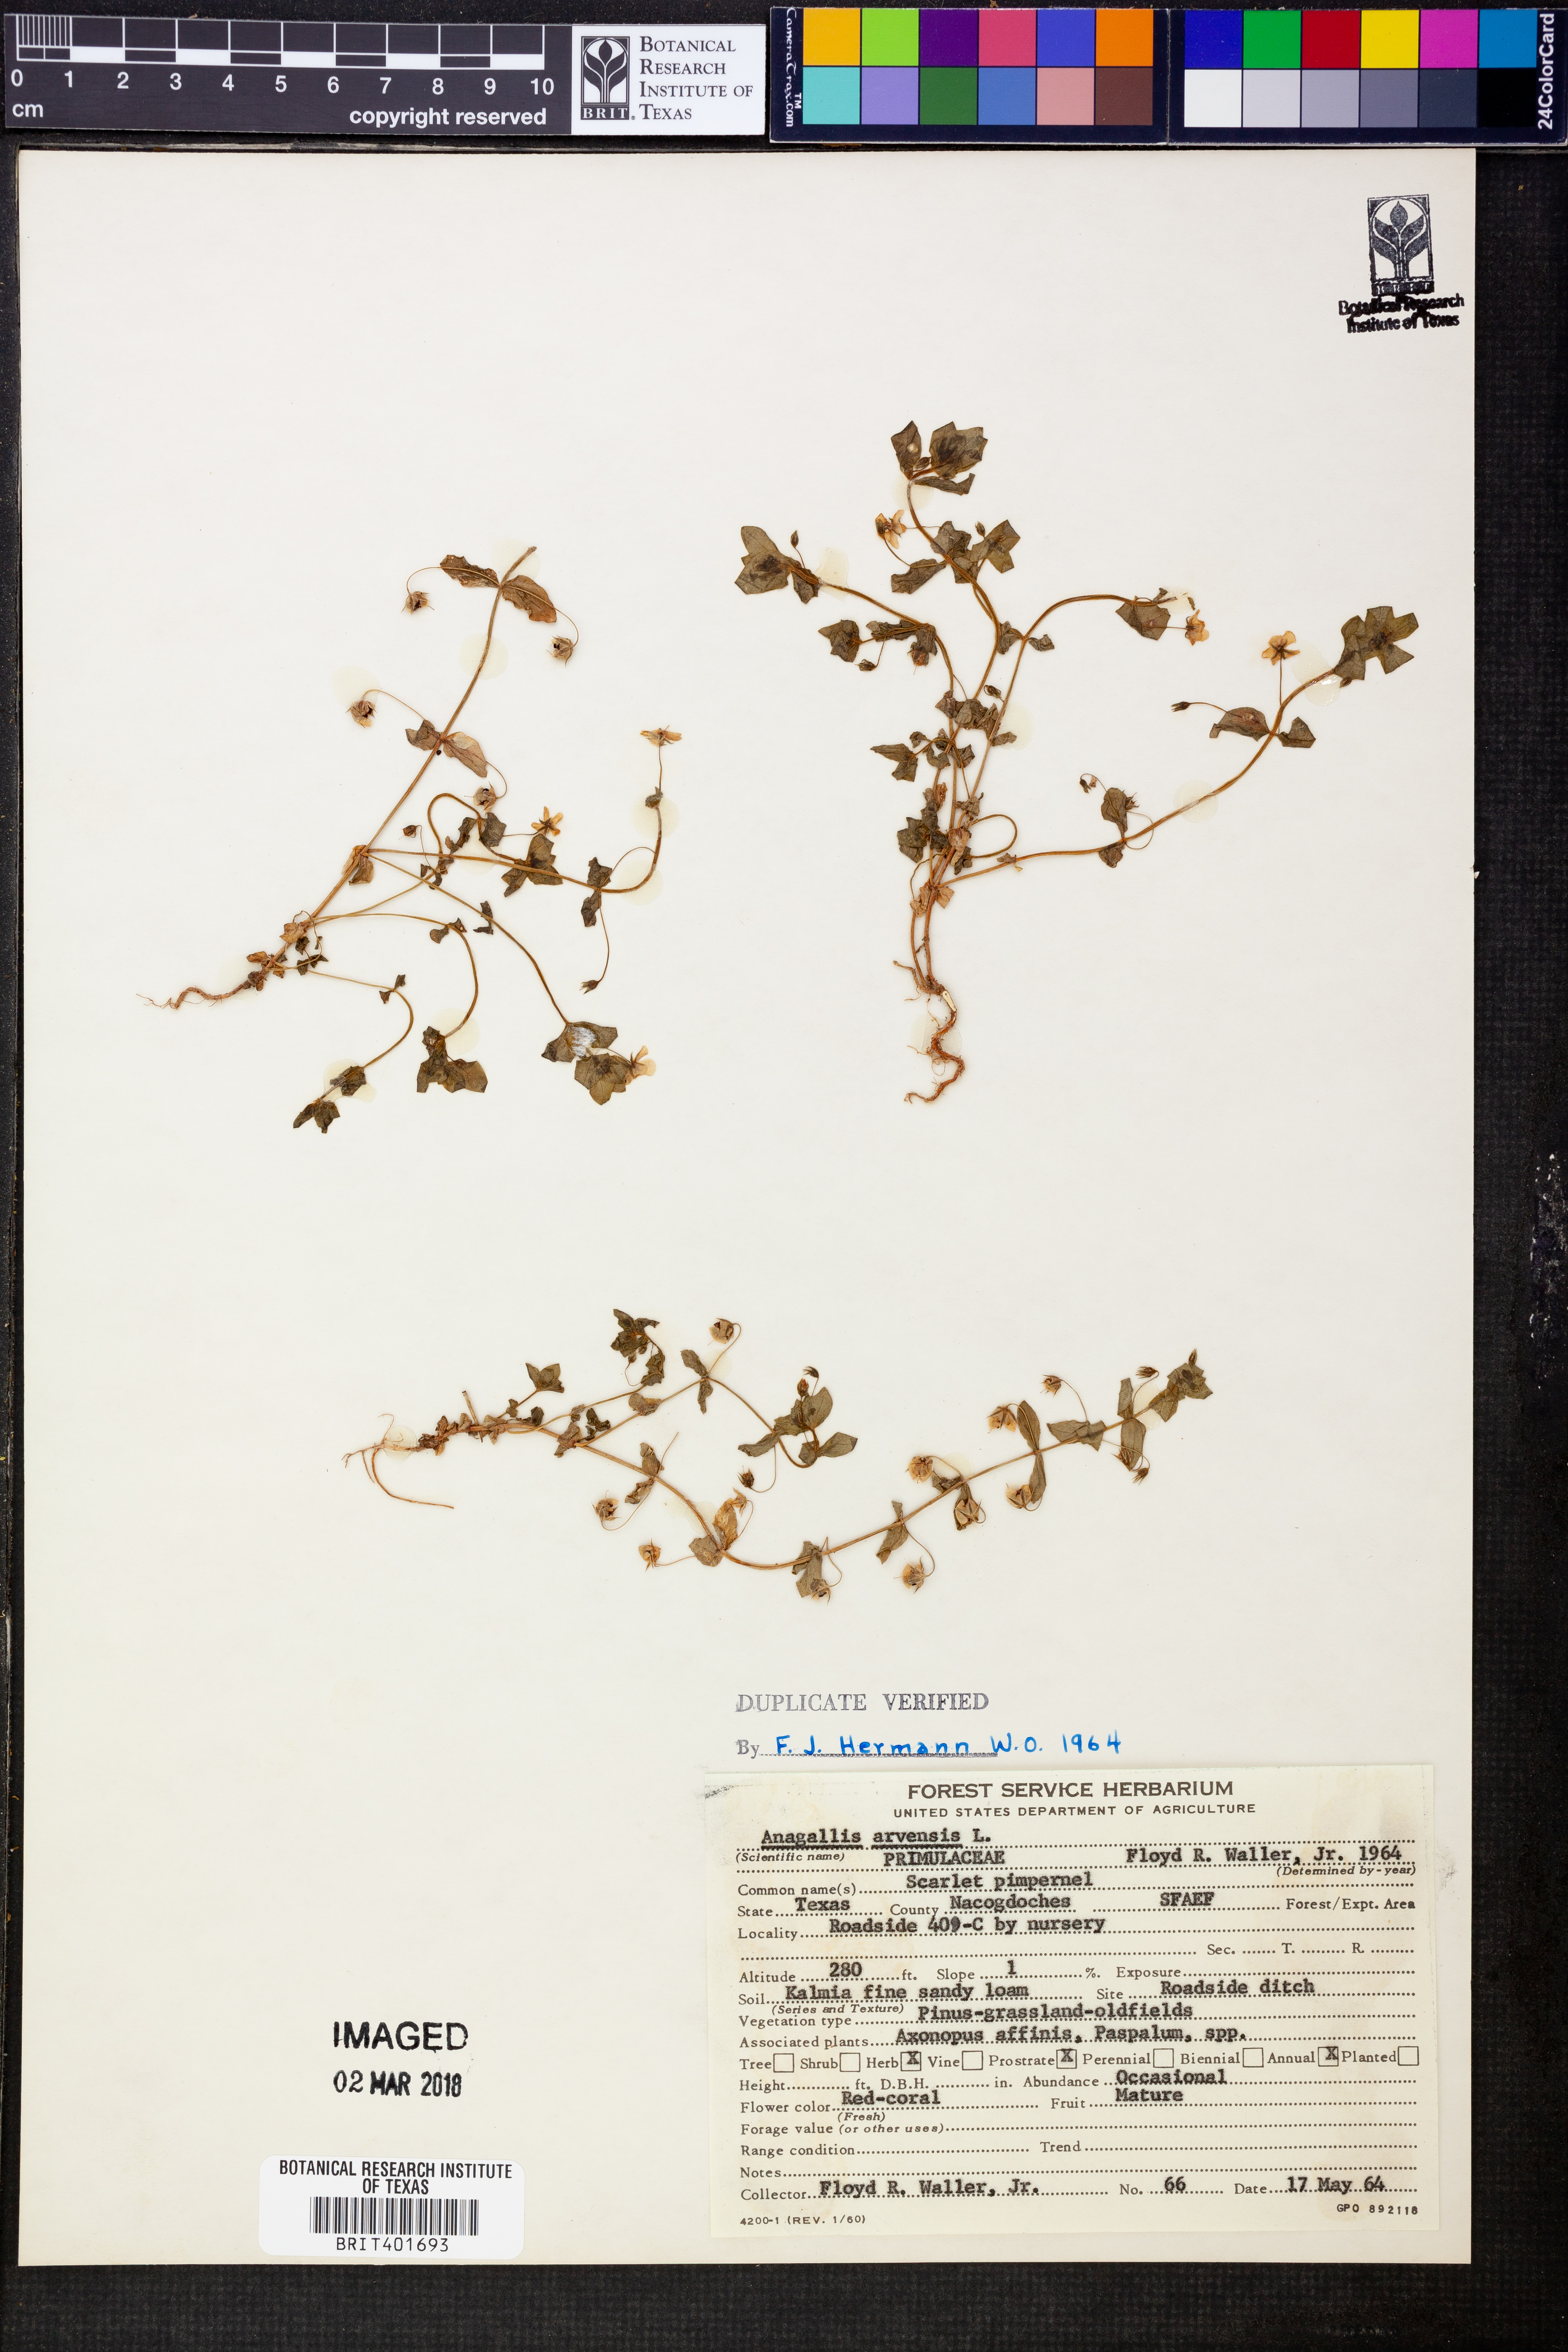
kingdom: Plantae
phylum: Tracheophyta
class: Magnoliopsida
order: Ericales
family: Primulaceae
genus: Lysimachia
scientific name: Lysimachia arvensis
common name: Scarlet pimpernel
